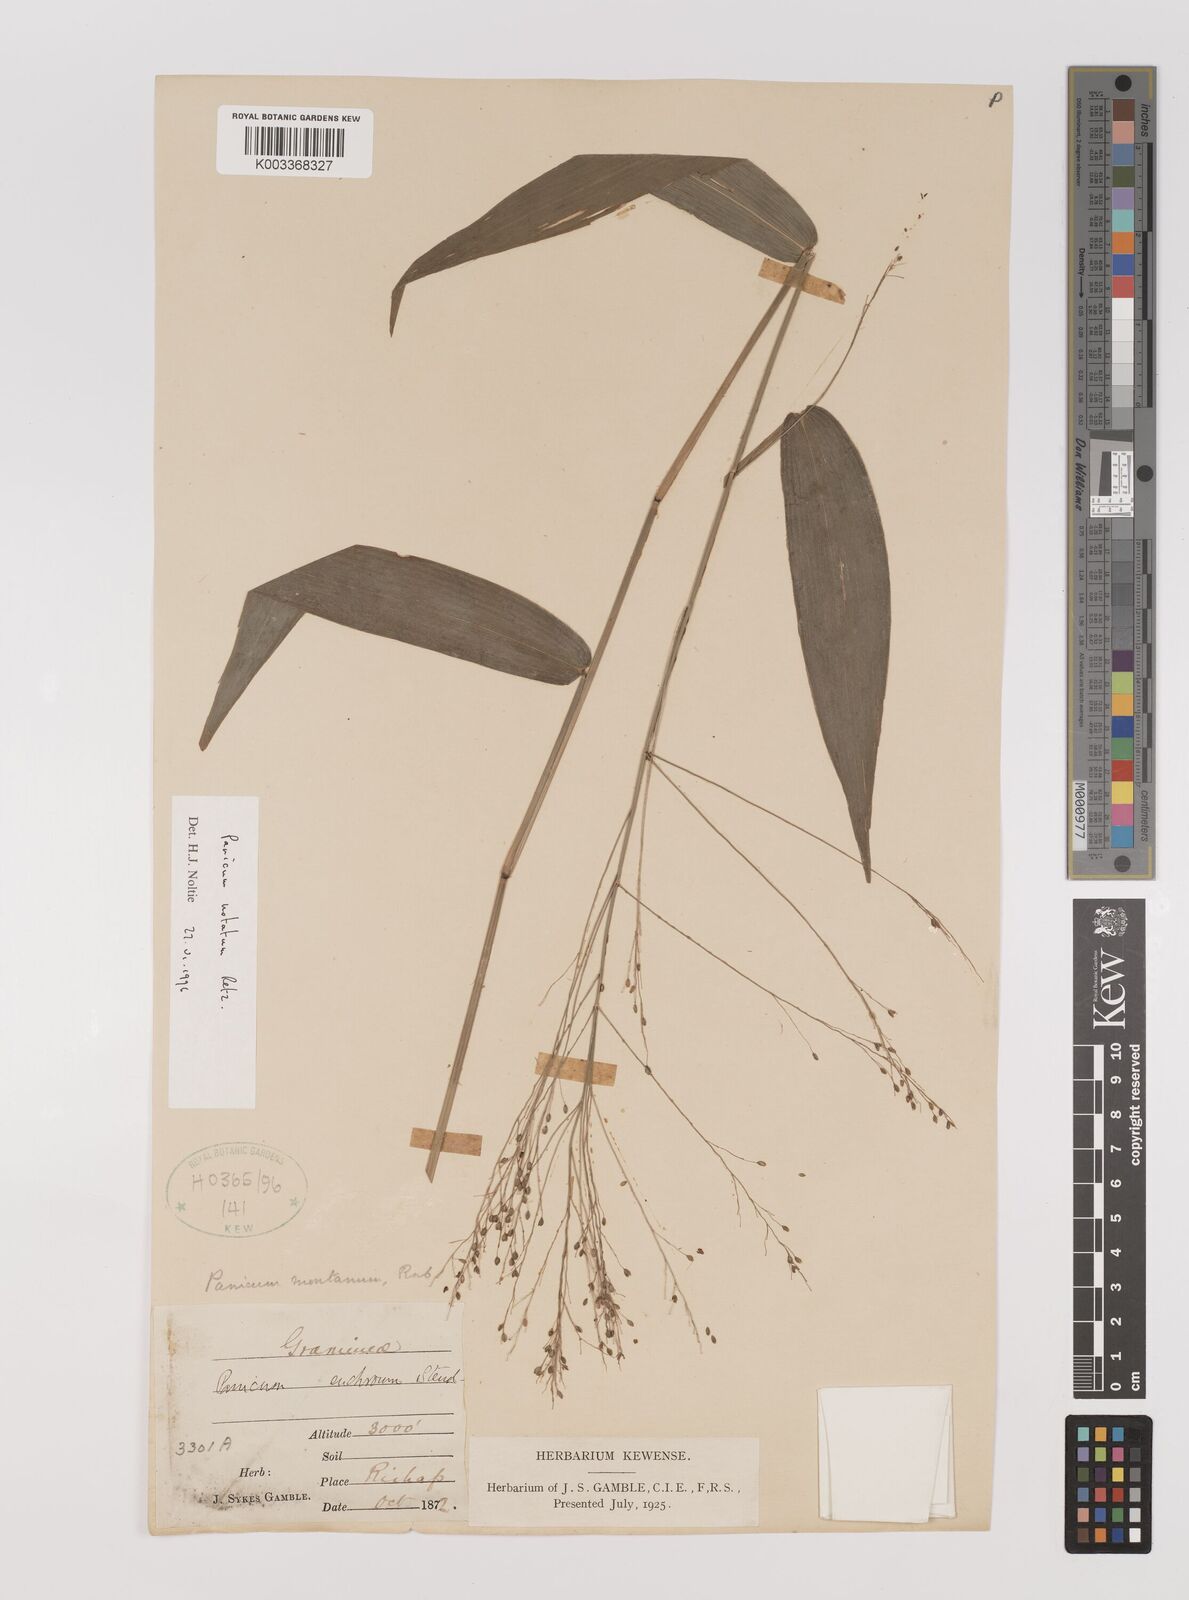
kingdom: Plantae
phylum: Tracheophyta
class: Liliopsida
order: Poales
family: Poaceae
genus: Panicum
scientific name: Panicum notatum
